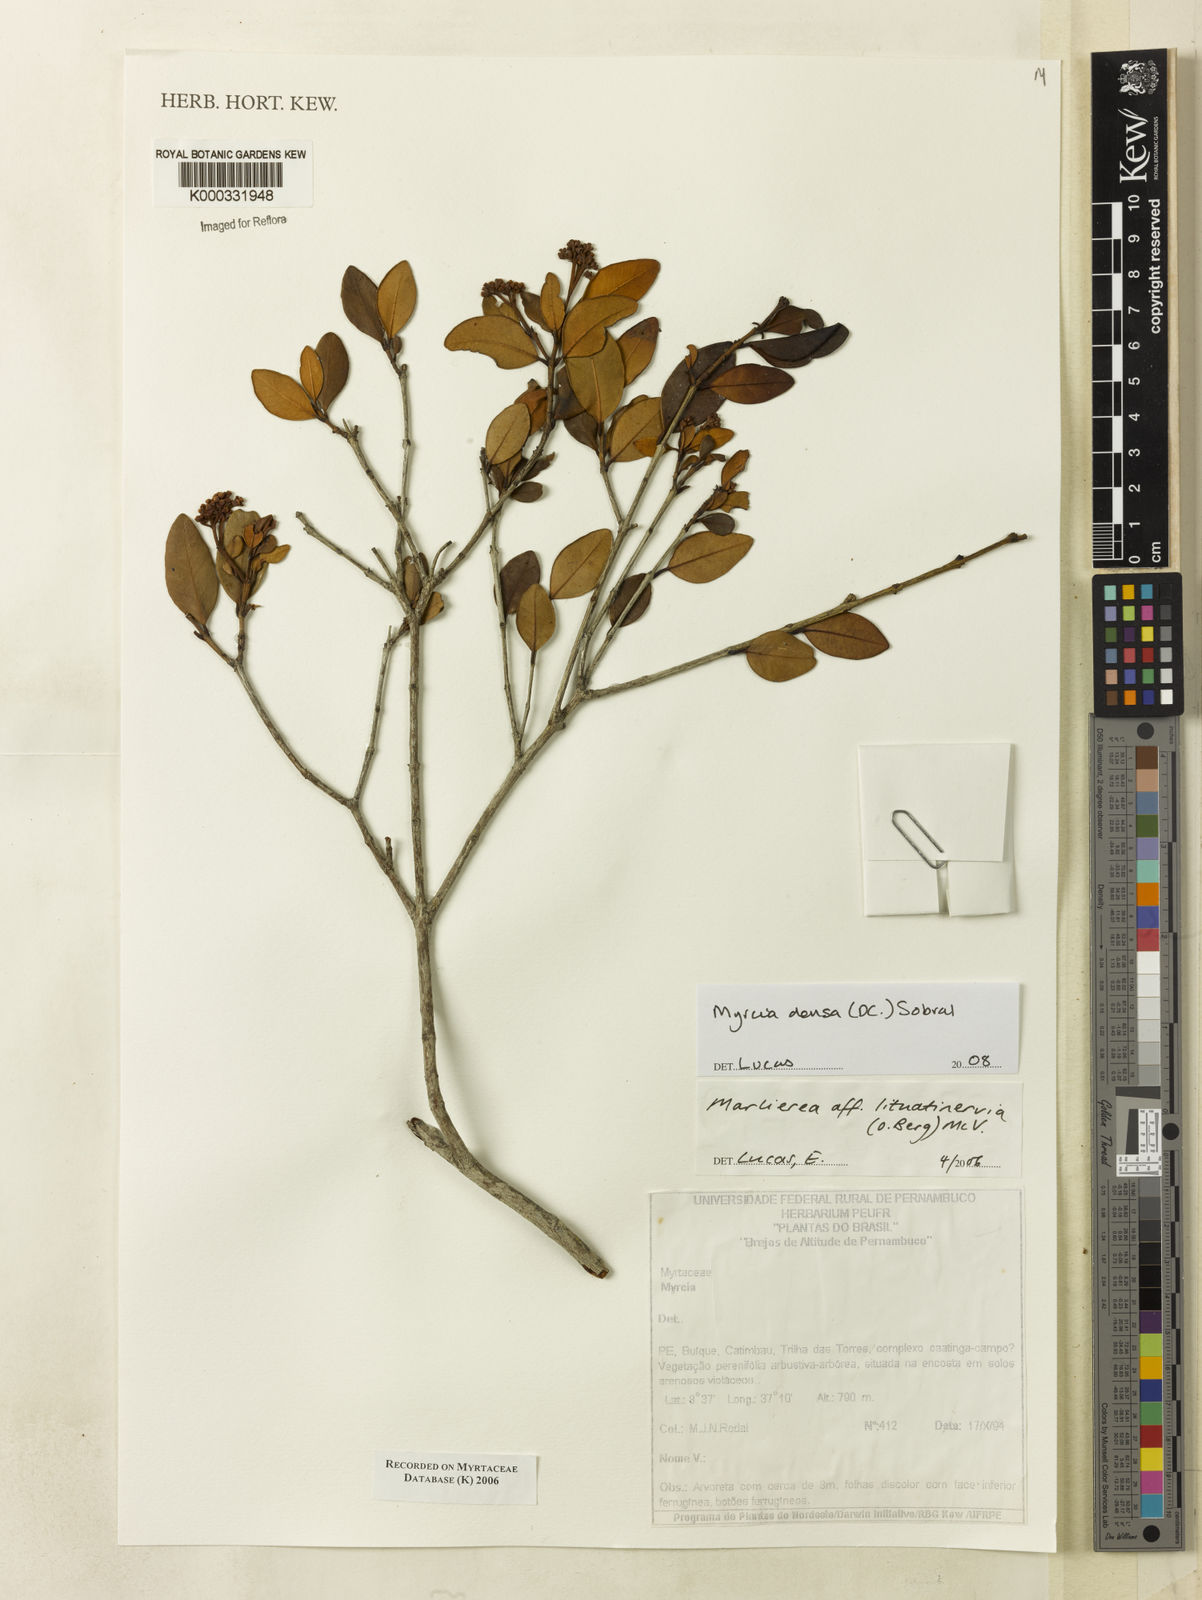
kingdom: Plantae
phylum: Tracheophyta
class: Magnoliopsida
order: Myrtales
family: Myrtaceae
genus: Myrcia
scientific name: Myrcia lituatinervia
